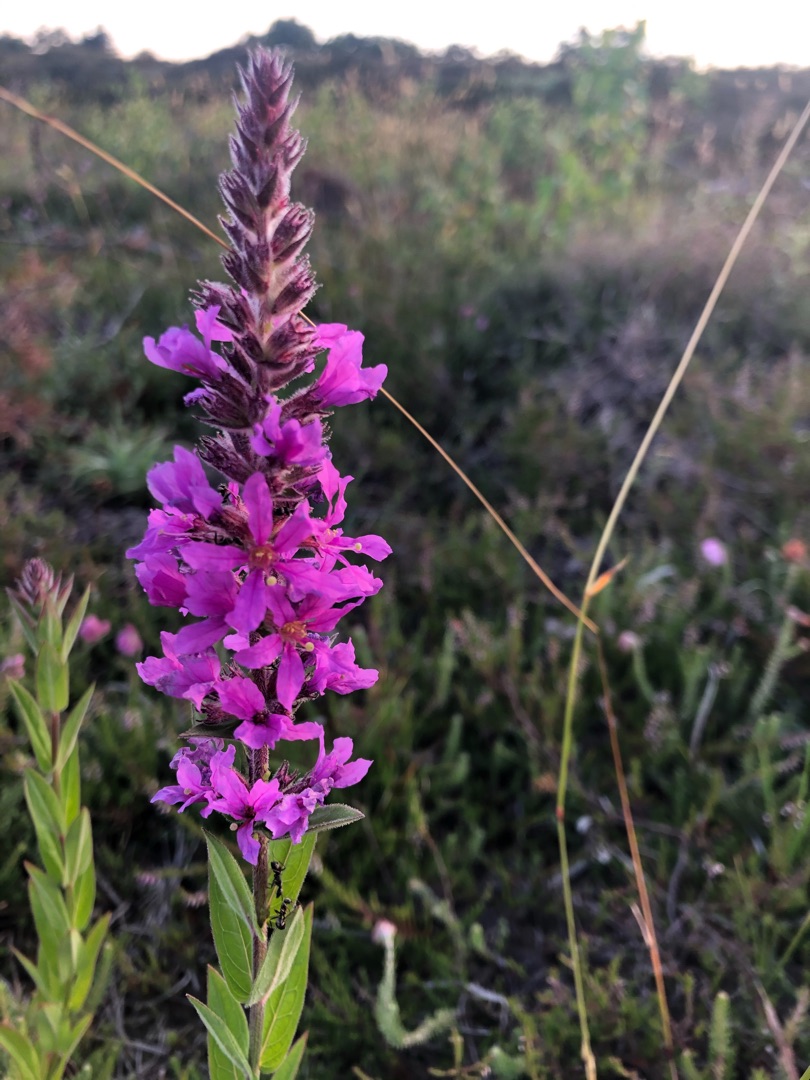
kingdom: Plantae
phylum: Tracheophyta
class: Magnoliopsida
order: Myrtales
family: Lythraceae
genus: Lythrum
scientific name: Lythrum salicaria
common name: Kattehale
